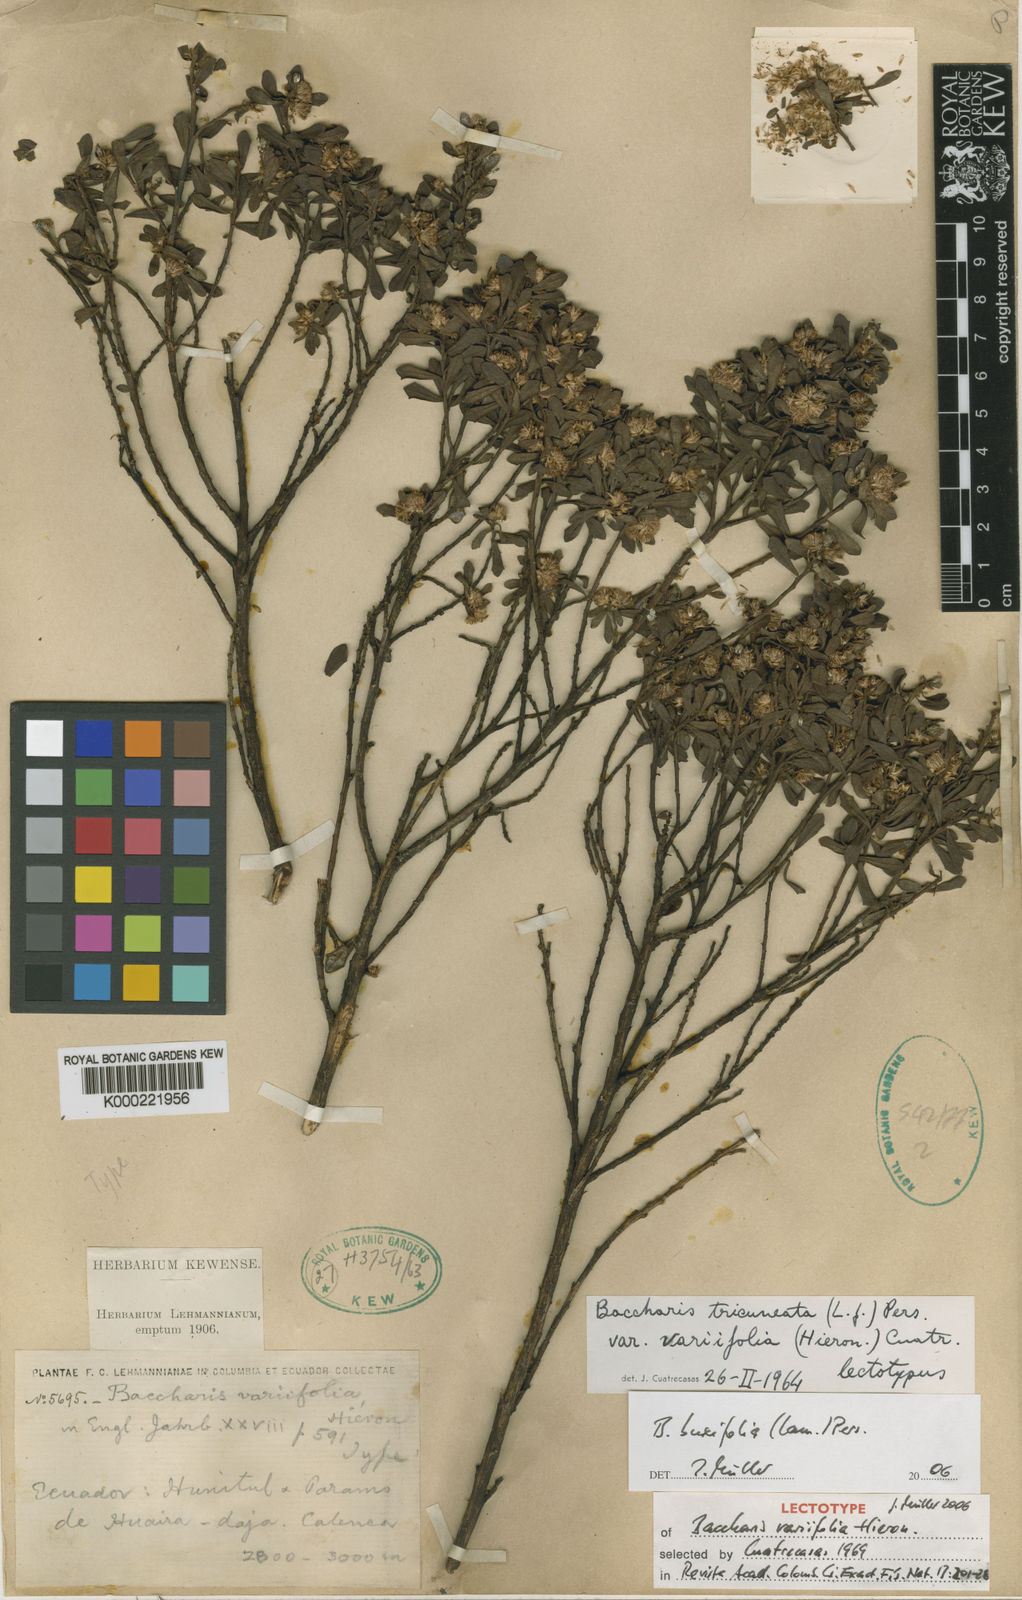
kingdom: Plantae
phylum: Tracheophyta
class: Magnoliopsida
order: Asterales
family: Asteraceae
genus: Baccharis
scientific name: Baccharis buxifolia
